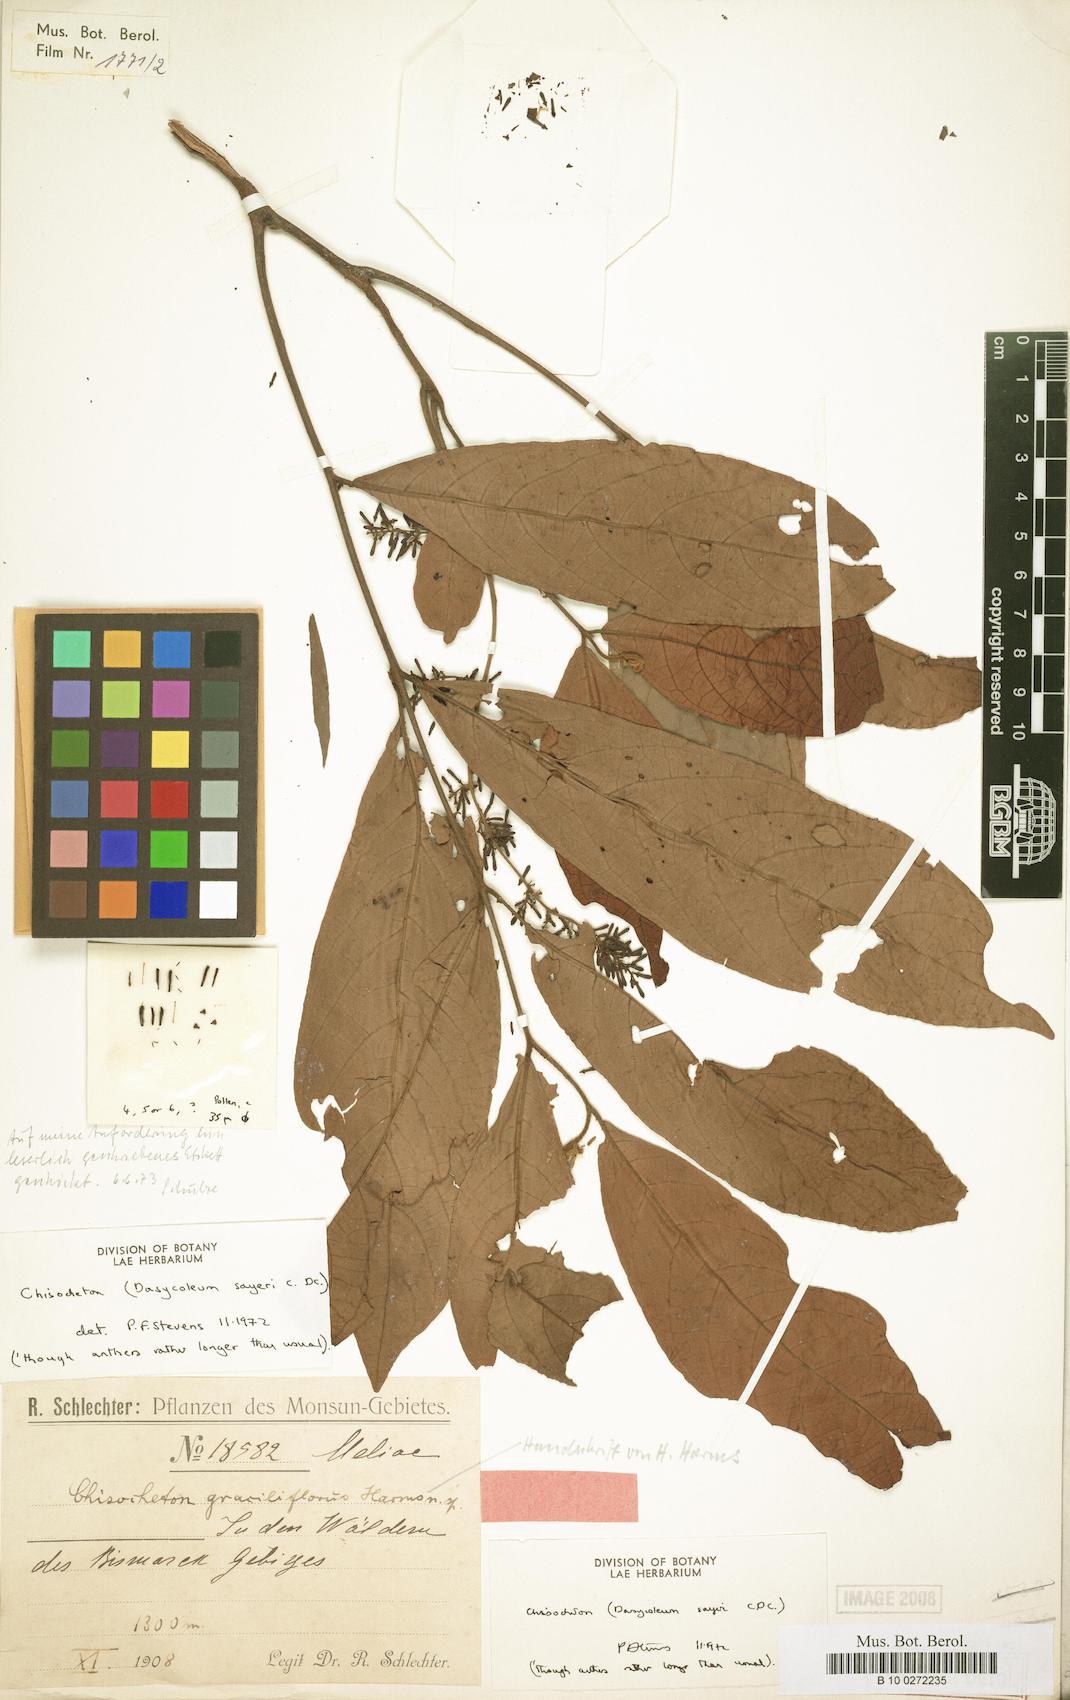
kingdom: Plantae
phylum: Tracheophyta
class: Magnoliopsida
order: Sapindales
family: Meliaceae
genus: Chisocheton
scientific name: Chisocheton sayeri
